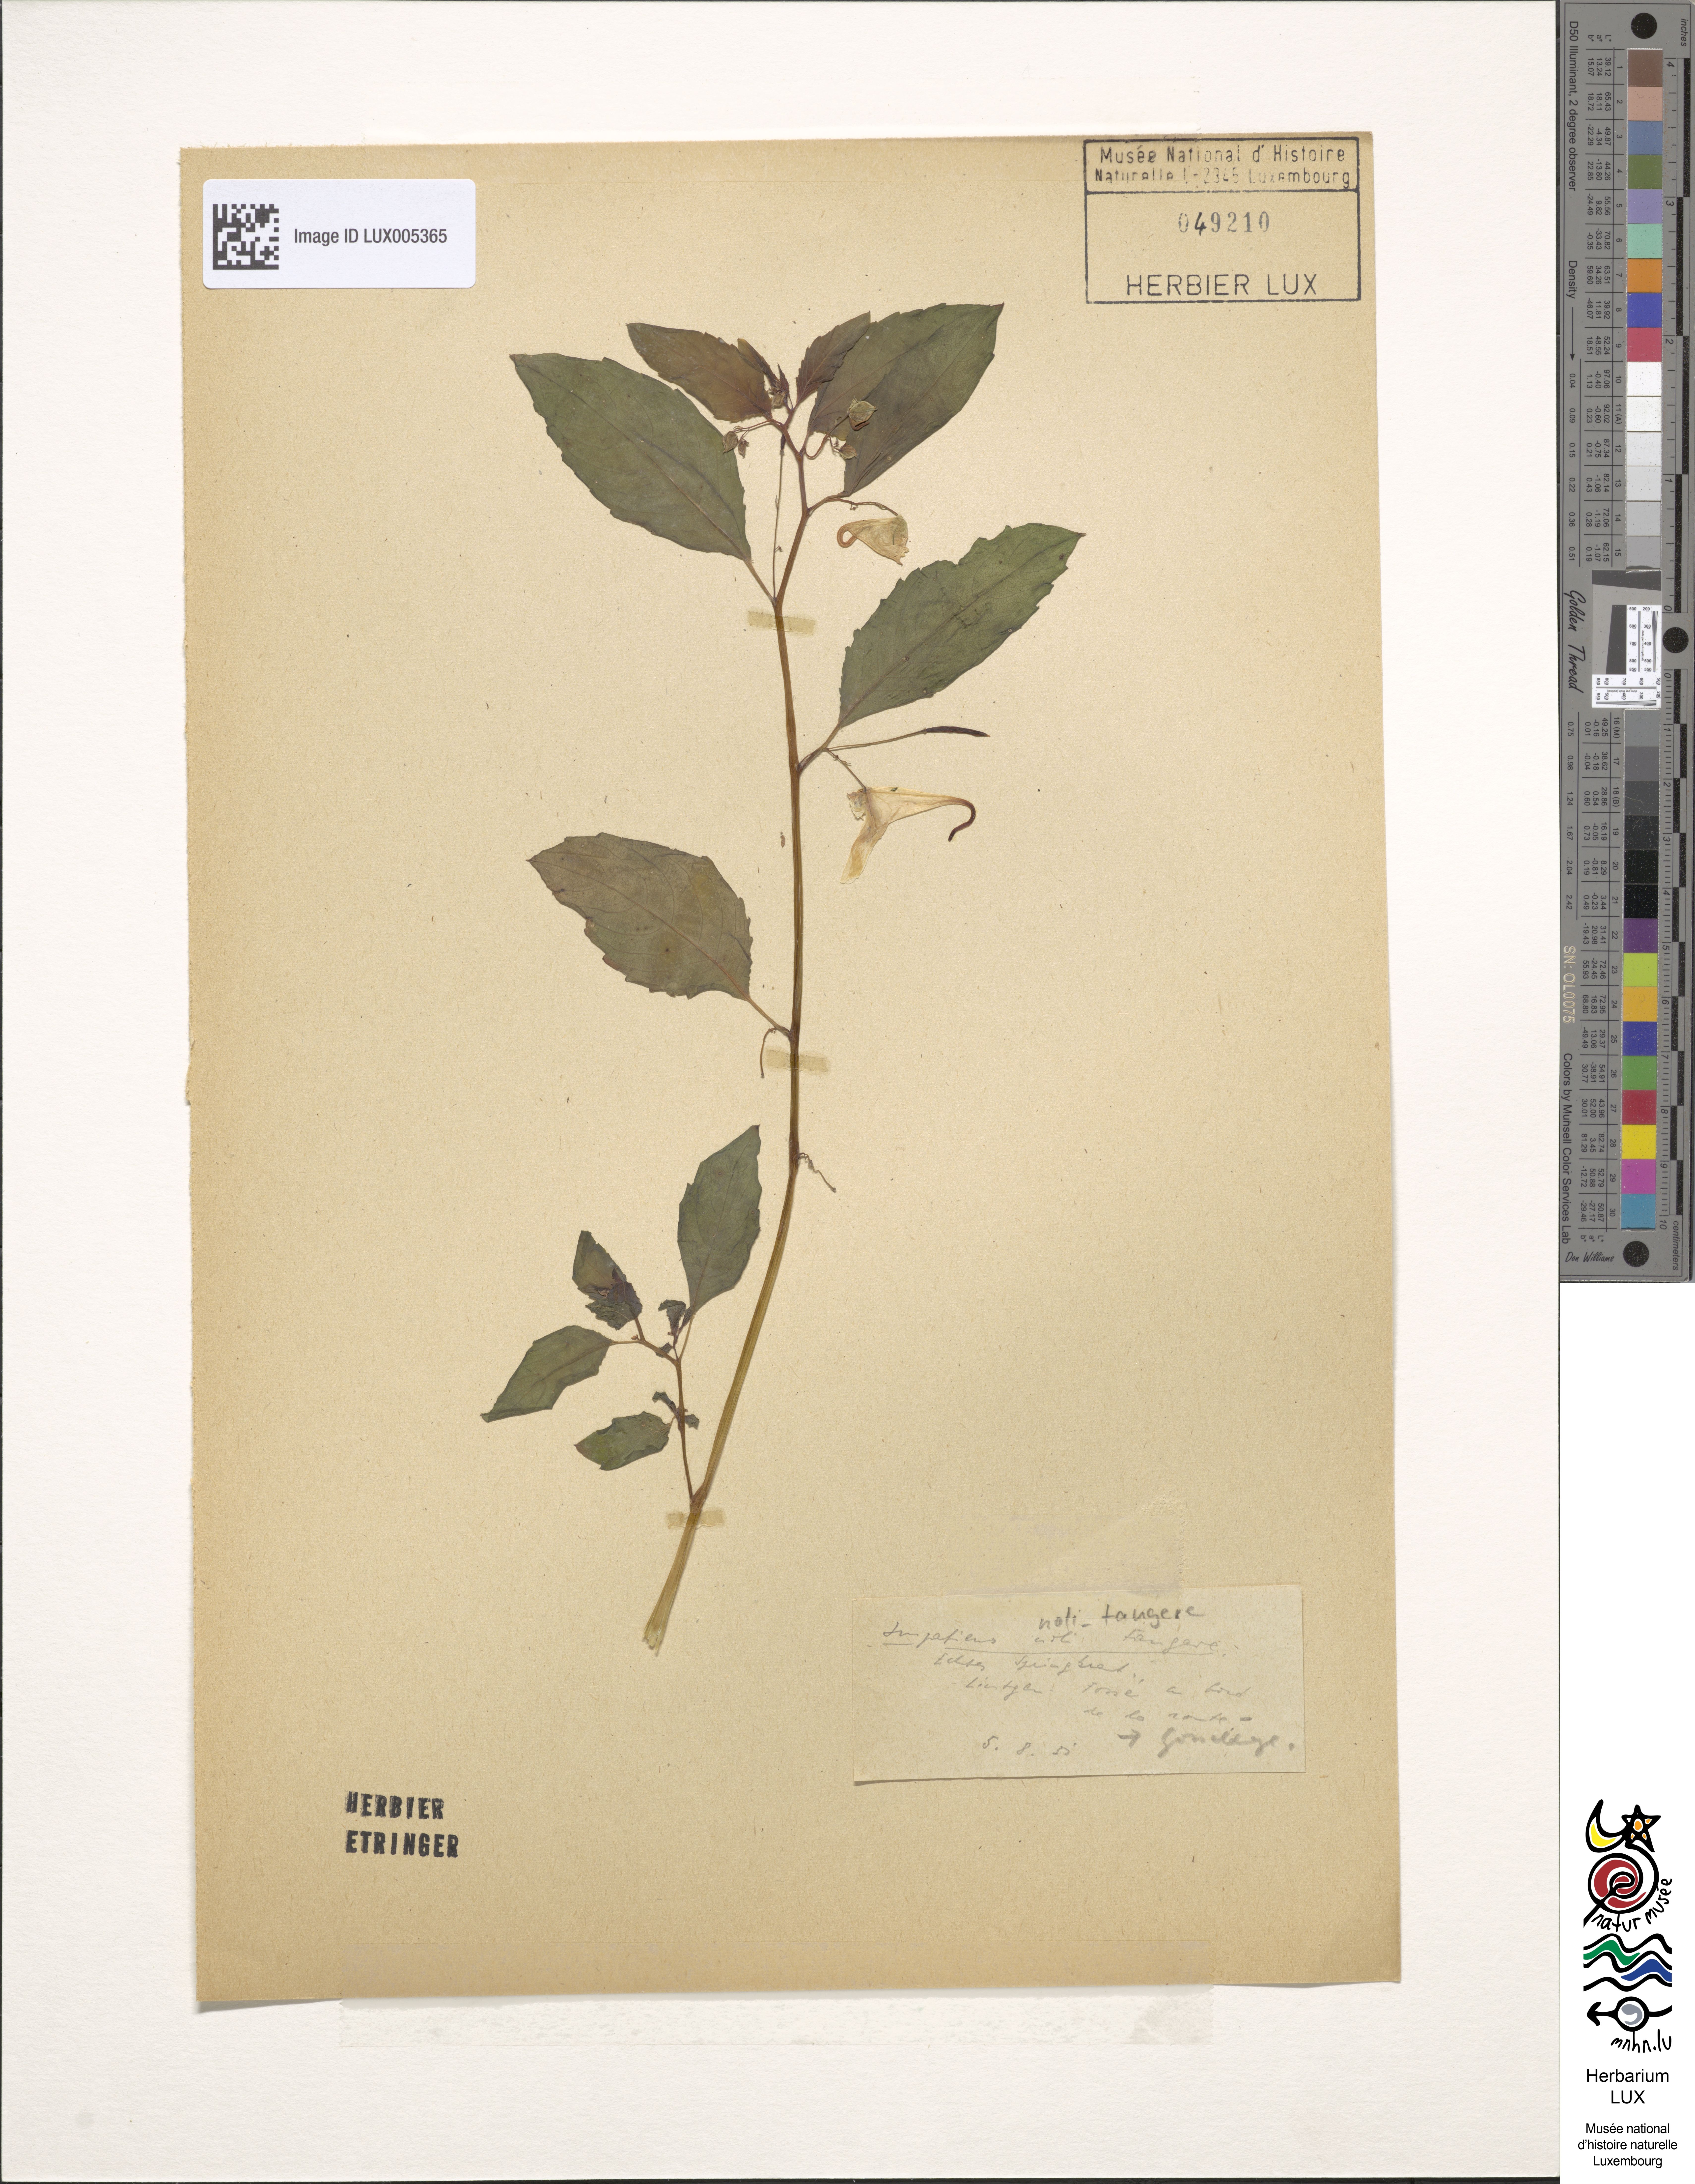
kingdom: Plantae
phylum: Tracheophyta
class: Magnoliopsida
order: Ericales
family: Balsaminaceae
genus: Impatiens
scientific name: Impatiens noli-tangere
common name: Touch-me-not balsam
